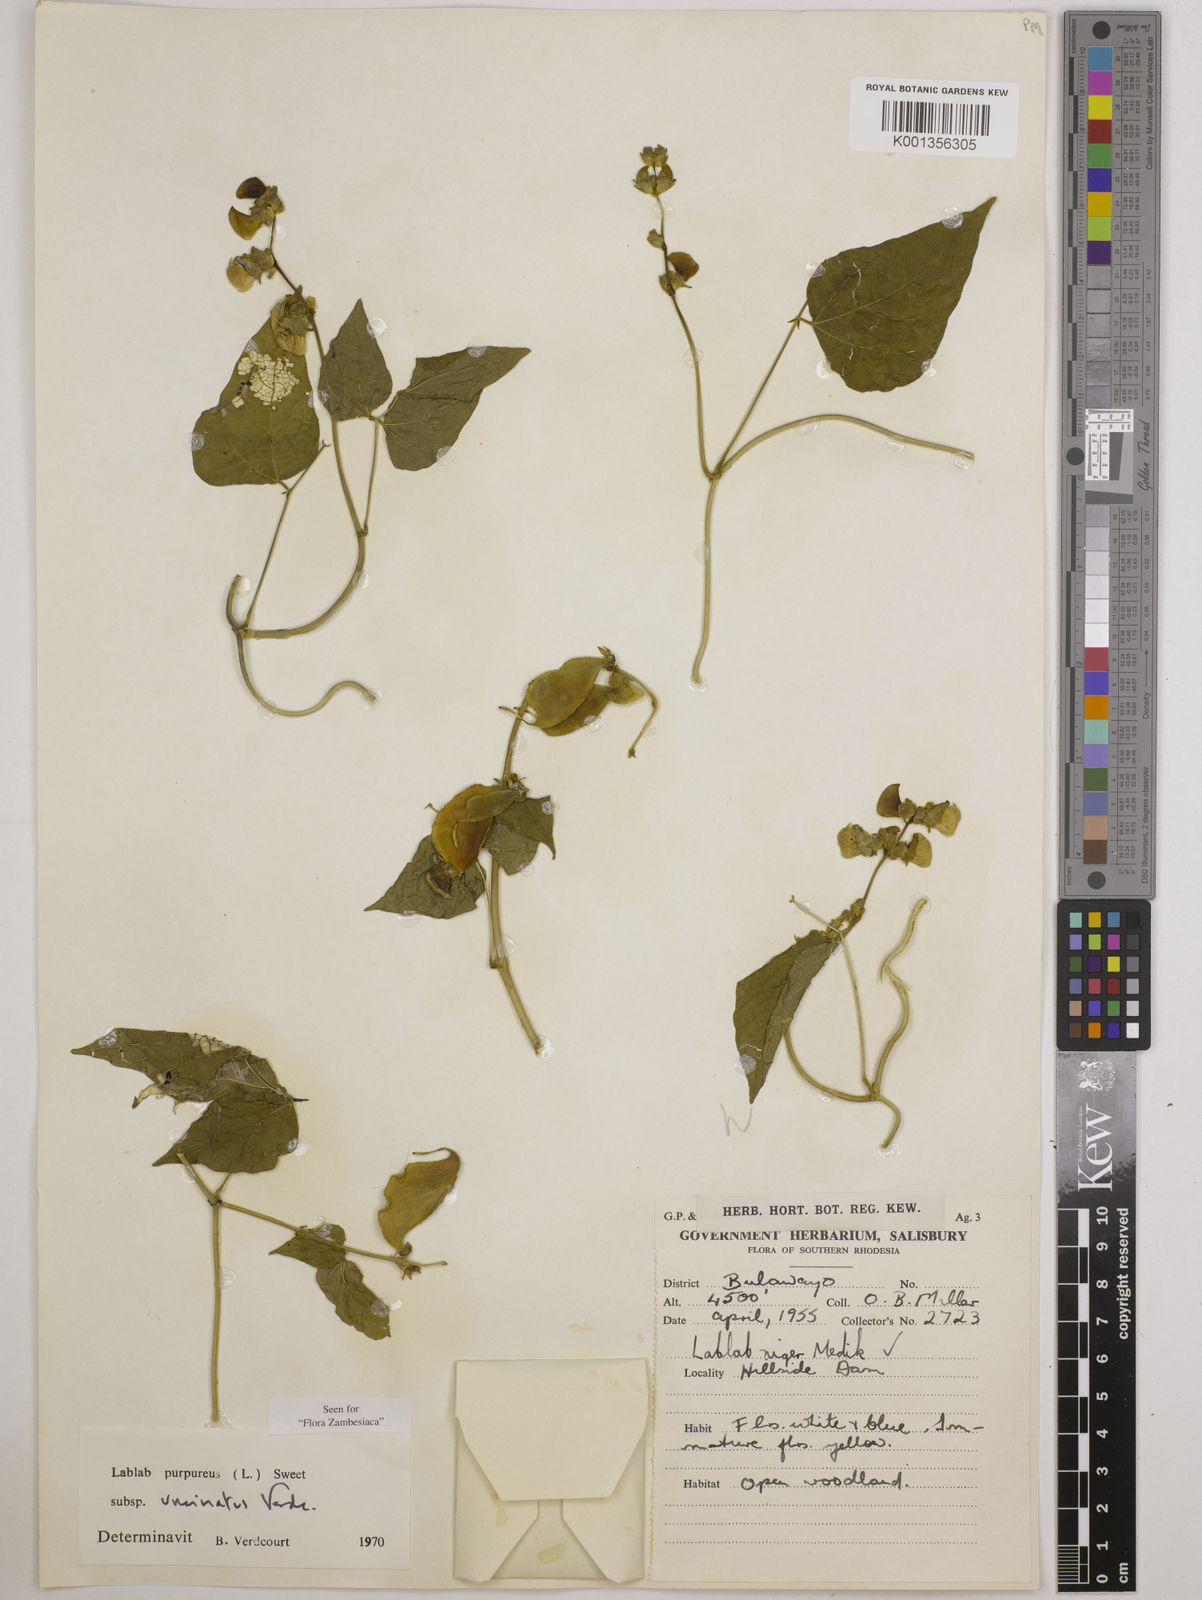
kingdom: Plantae
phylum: Tracheophyta
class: Magnoliopsida
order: Fabales
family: Fabaceae
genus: Lablab
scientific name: Lablab purpureus
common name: Lablab-bean
